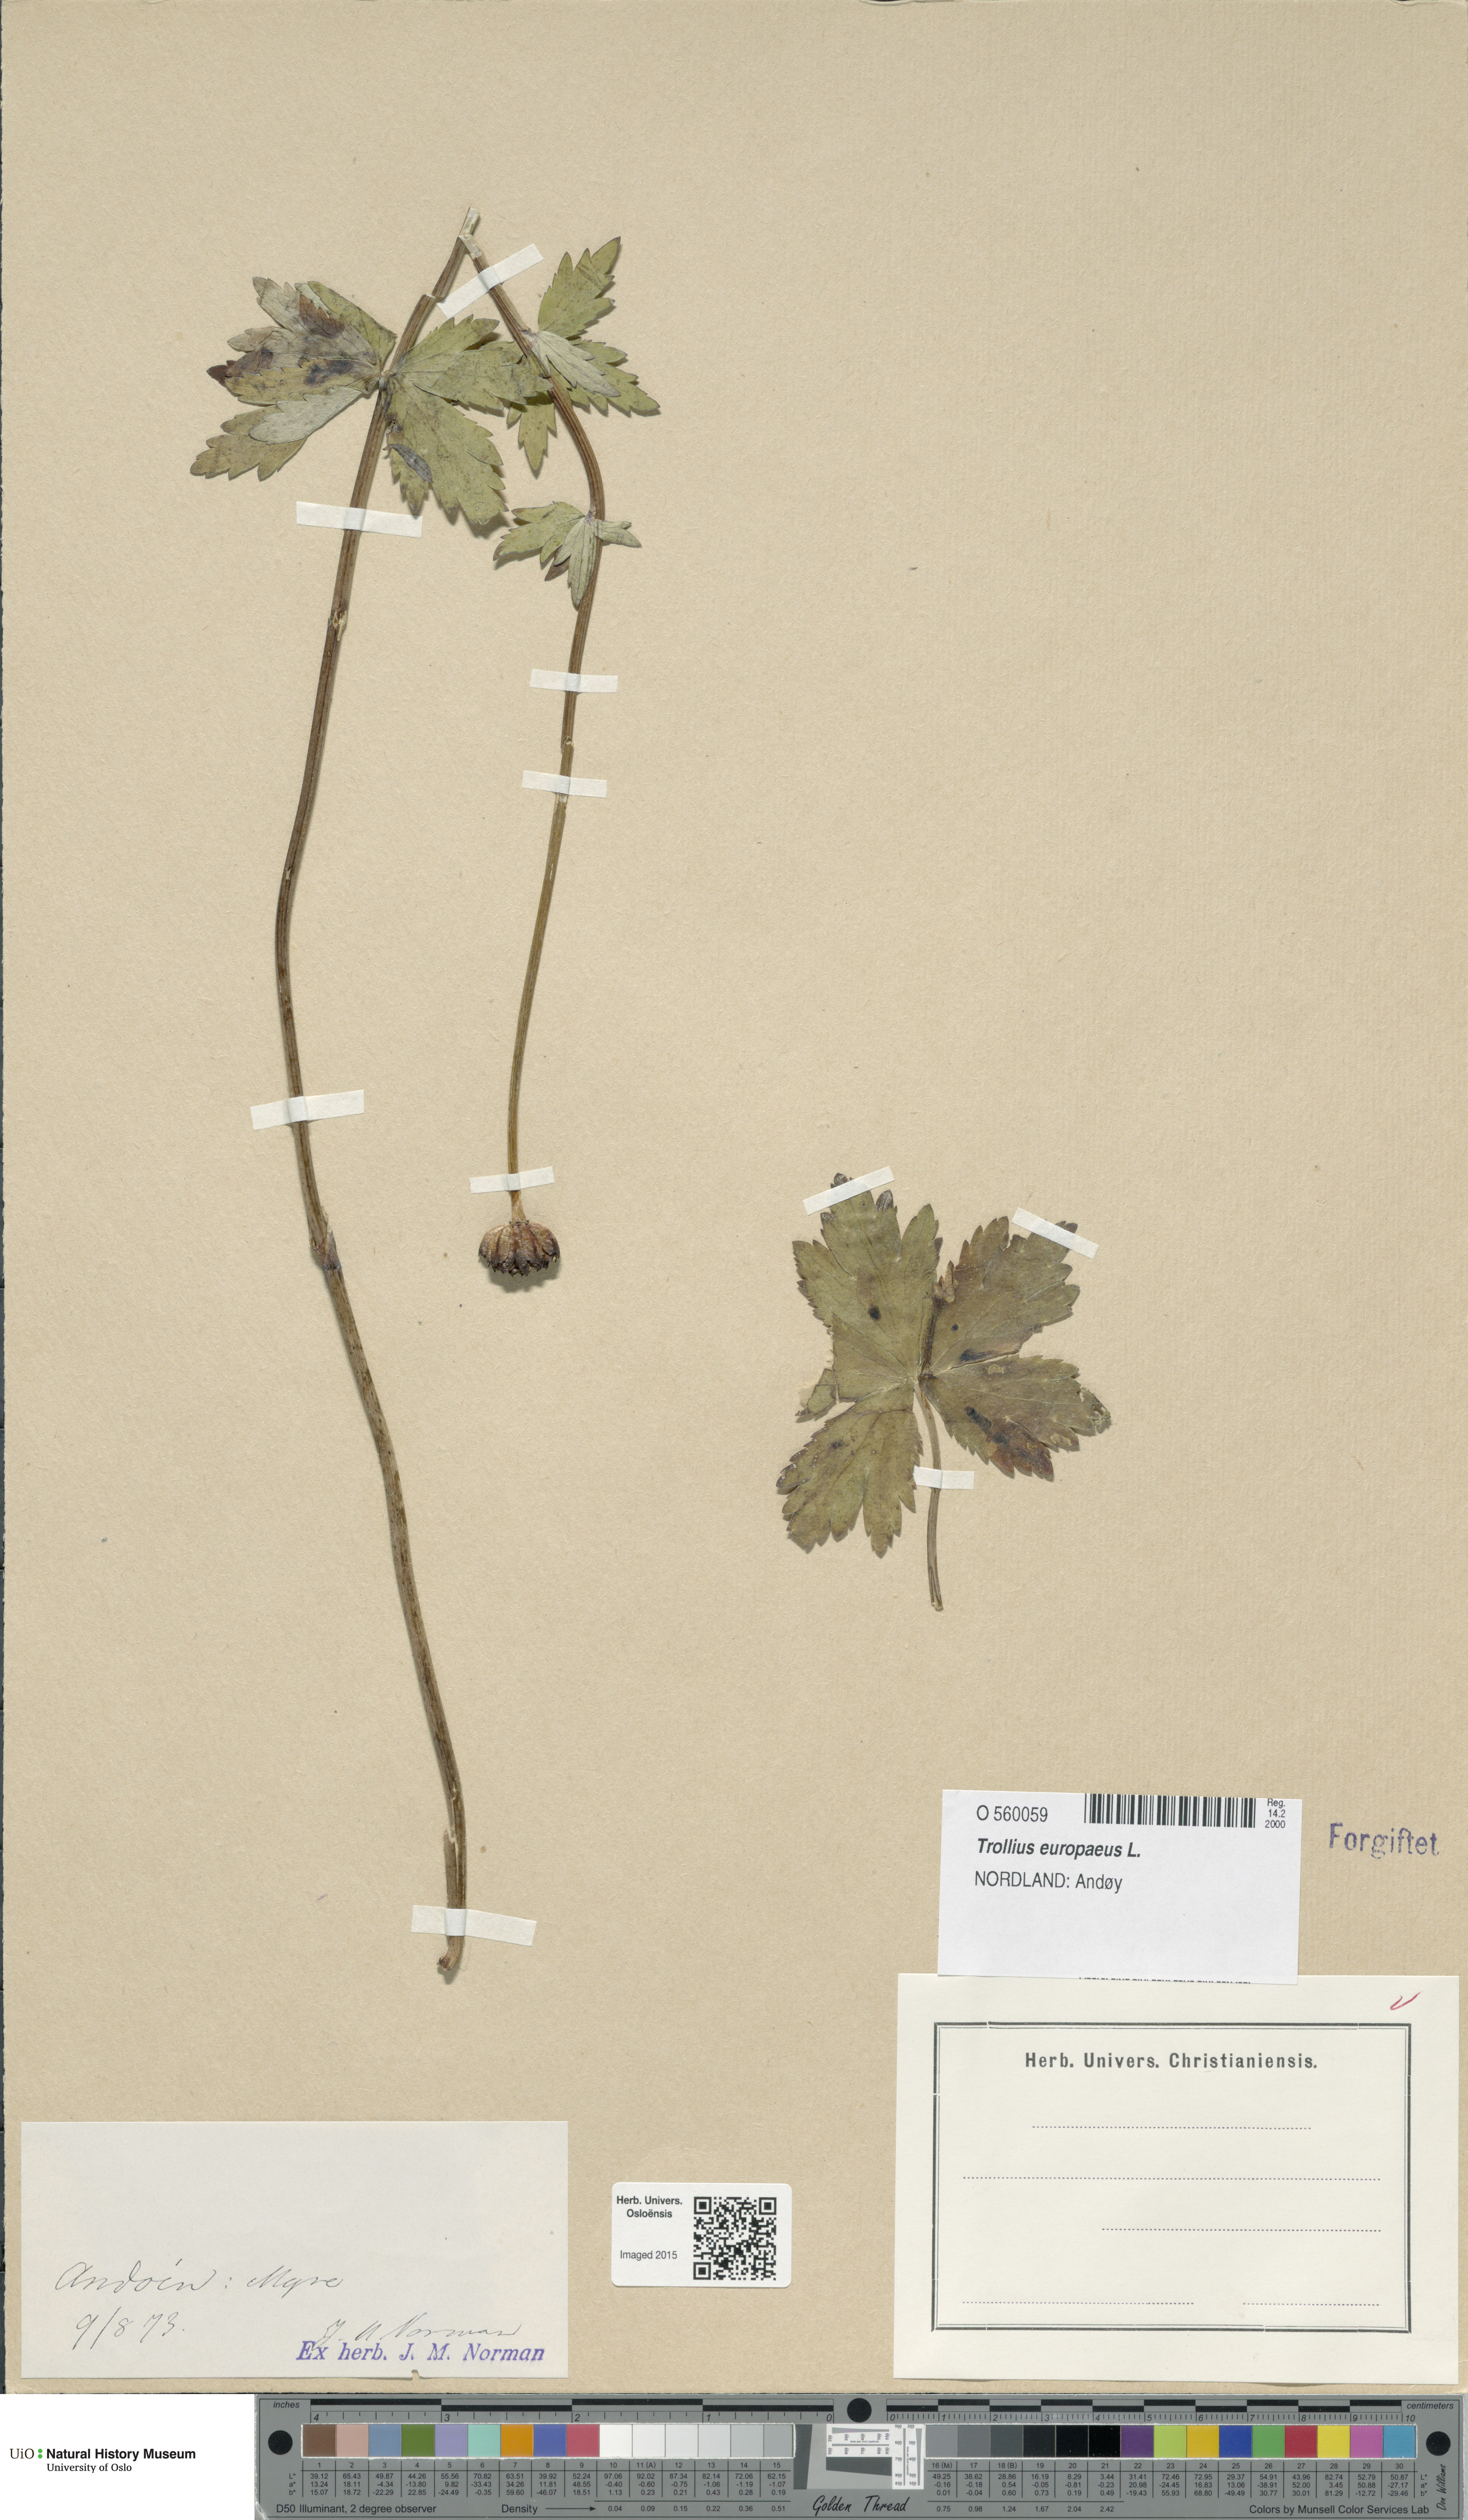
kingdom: Plantae
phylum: Tracheophyta
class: Magnoliopsida
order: Ranunculales
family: Ranunculaceae
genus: Trollius
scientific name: Trollius europaeus
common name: European globeflower
